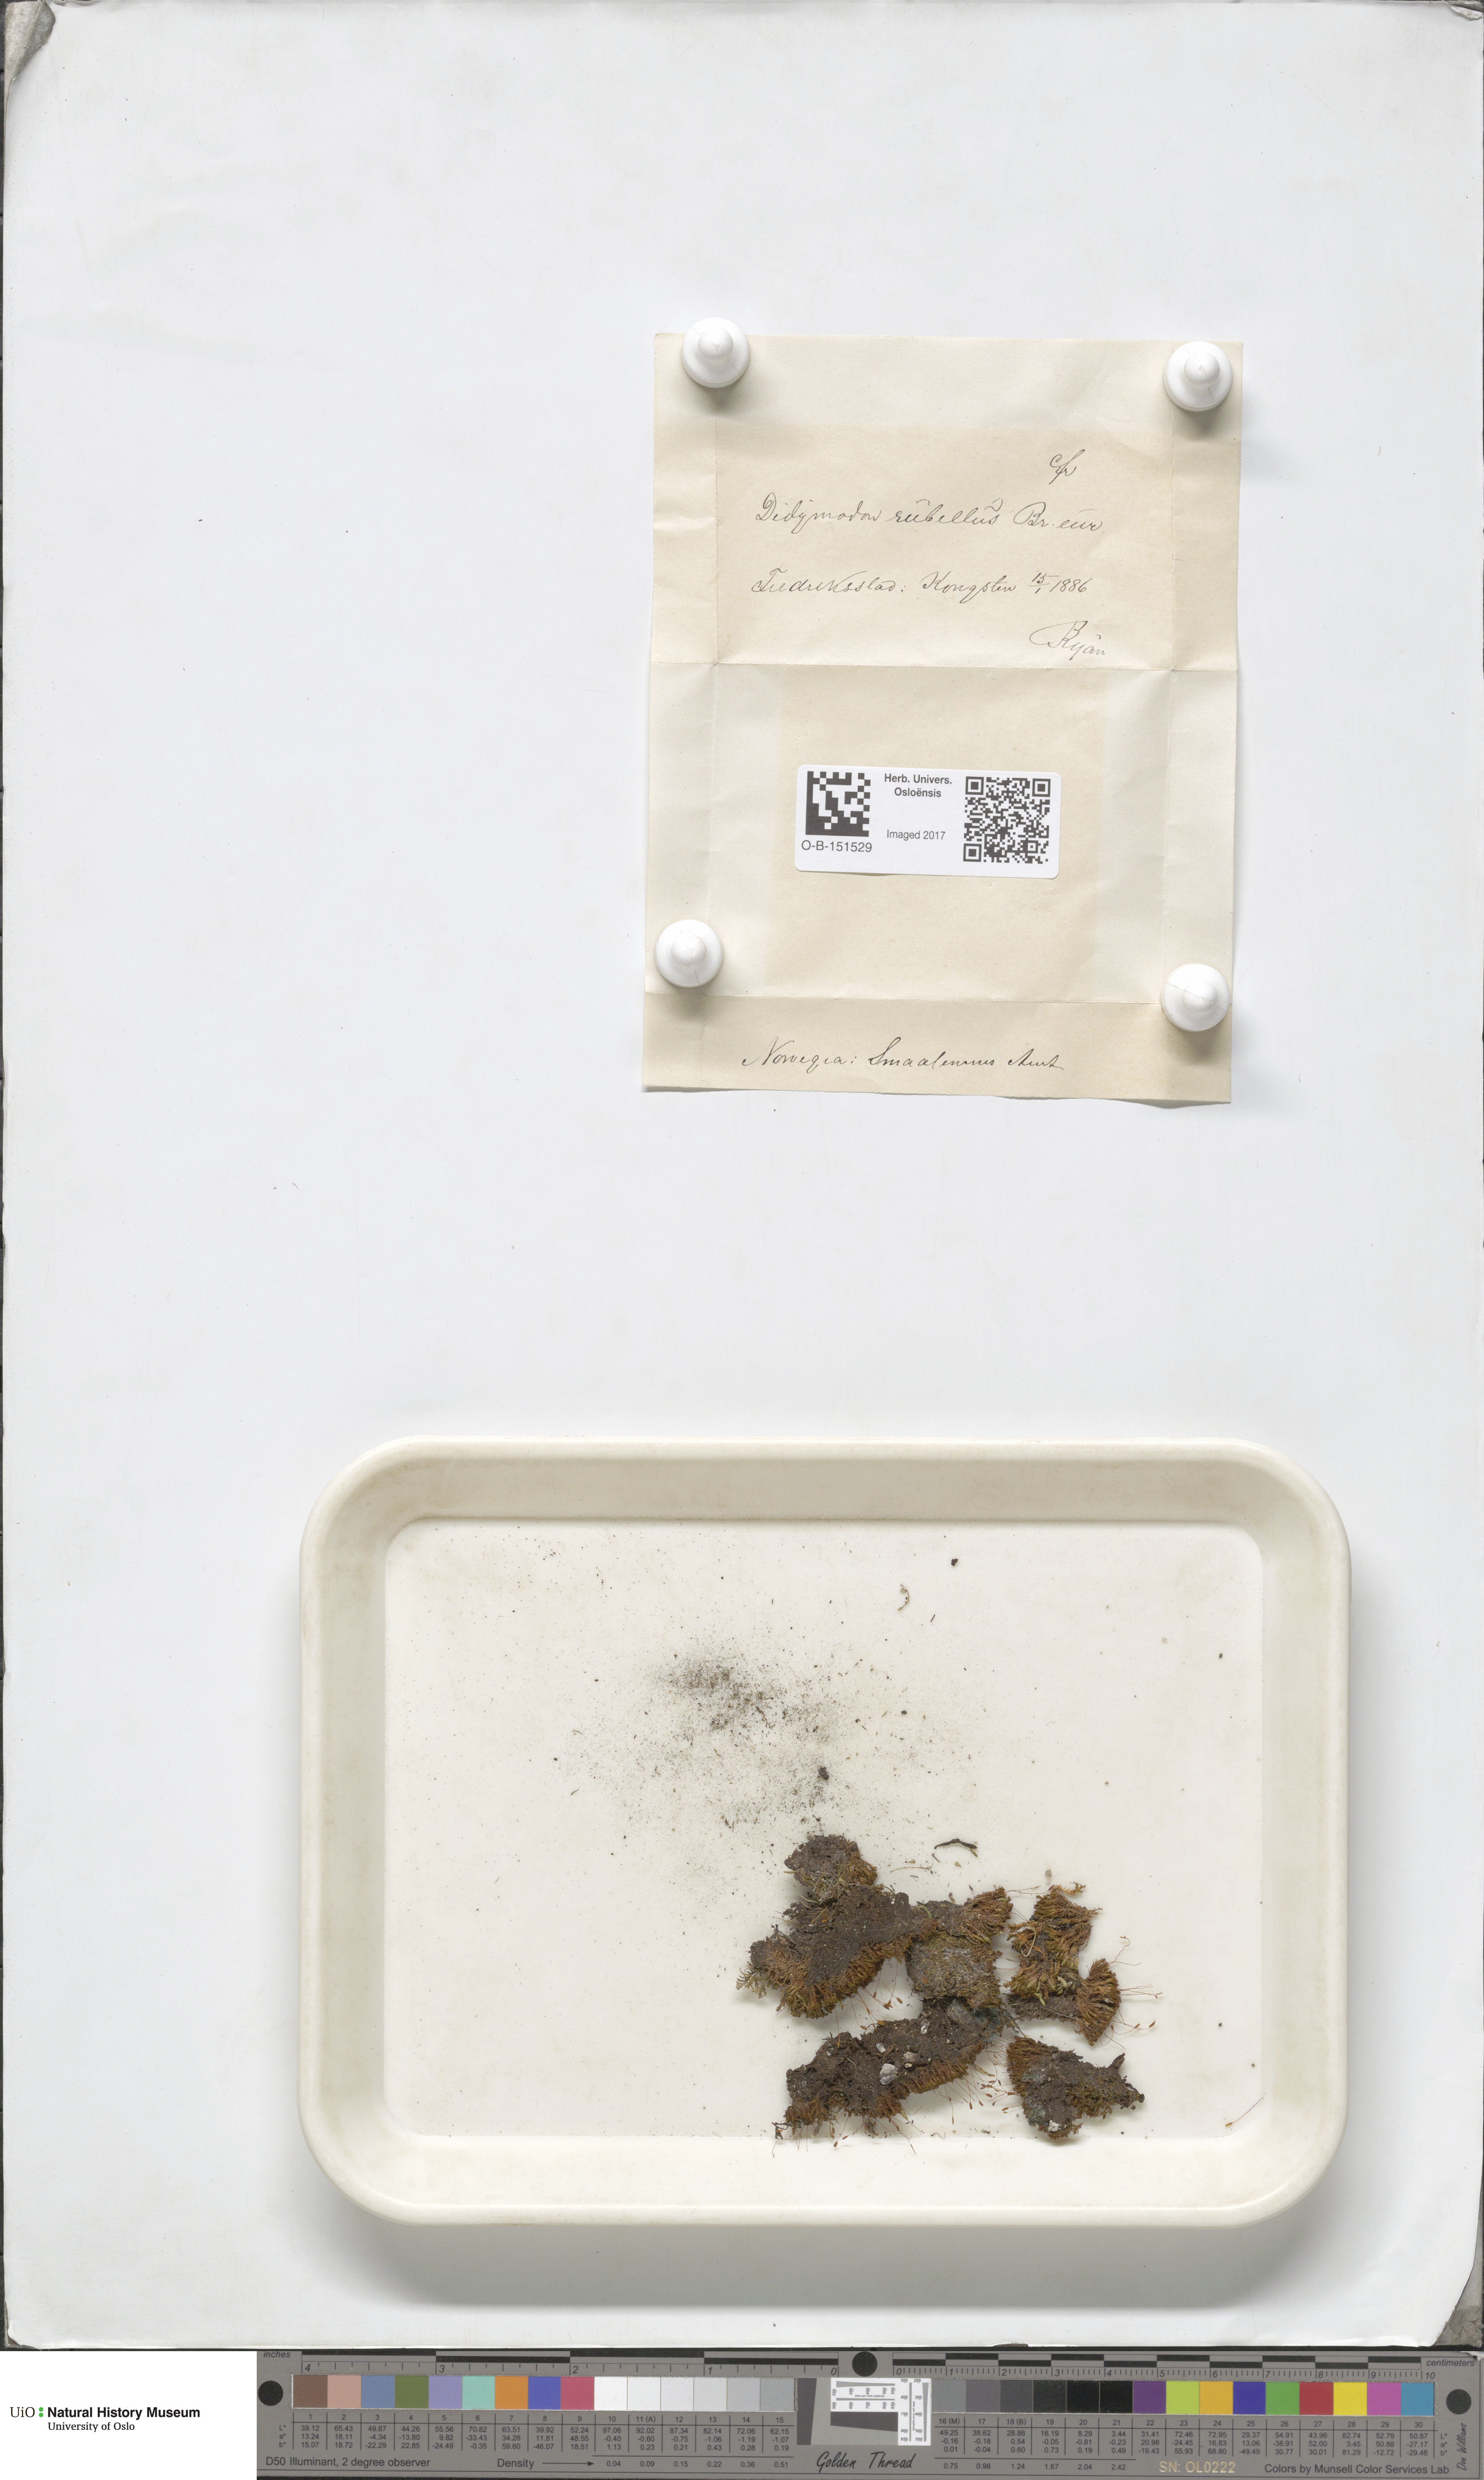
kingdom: Plantae
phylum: Bryophyta
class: Bryopsida
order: Pottiales
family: Pottiaceae
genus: Bryoerythrophyllum
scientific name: Bryoerythrophyllum recurvirostrum
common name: Red beard moss
